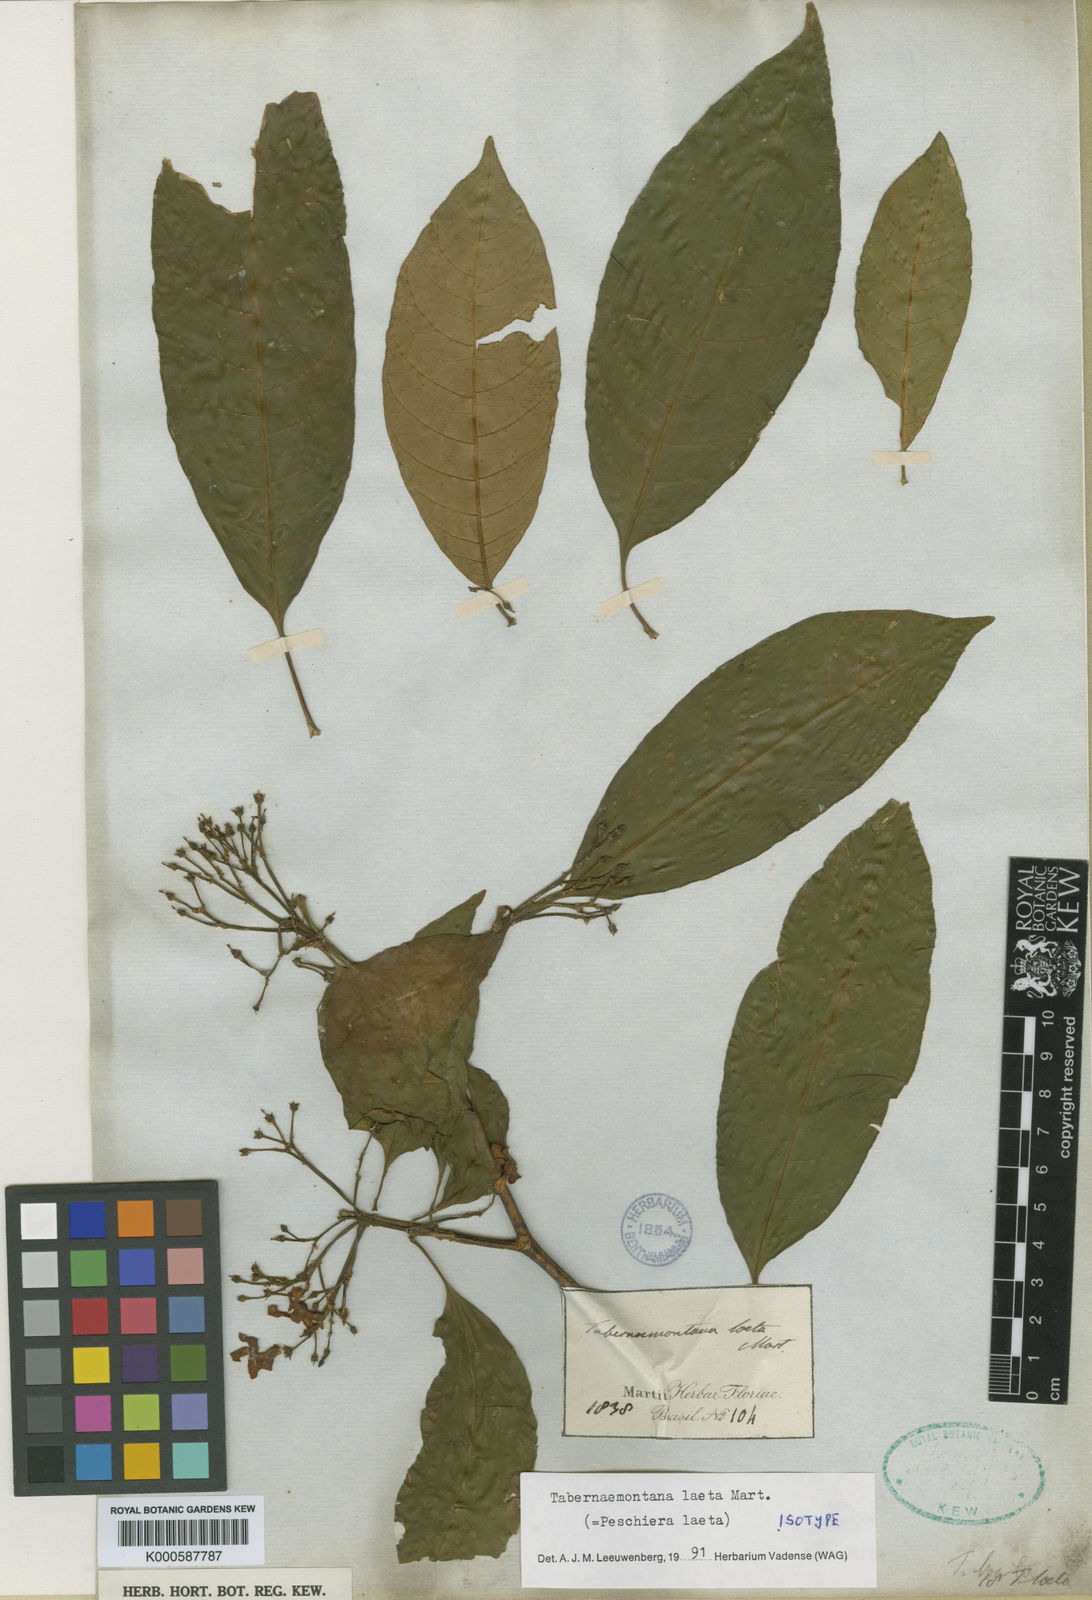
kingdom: Plantae
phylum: Tracheophyta
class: Magnoliopsida
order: Gentianales
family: Apocynaceae
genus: Tabernaemontana
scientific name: Tabernaemontana laeta
